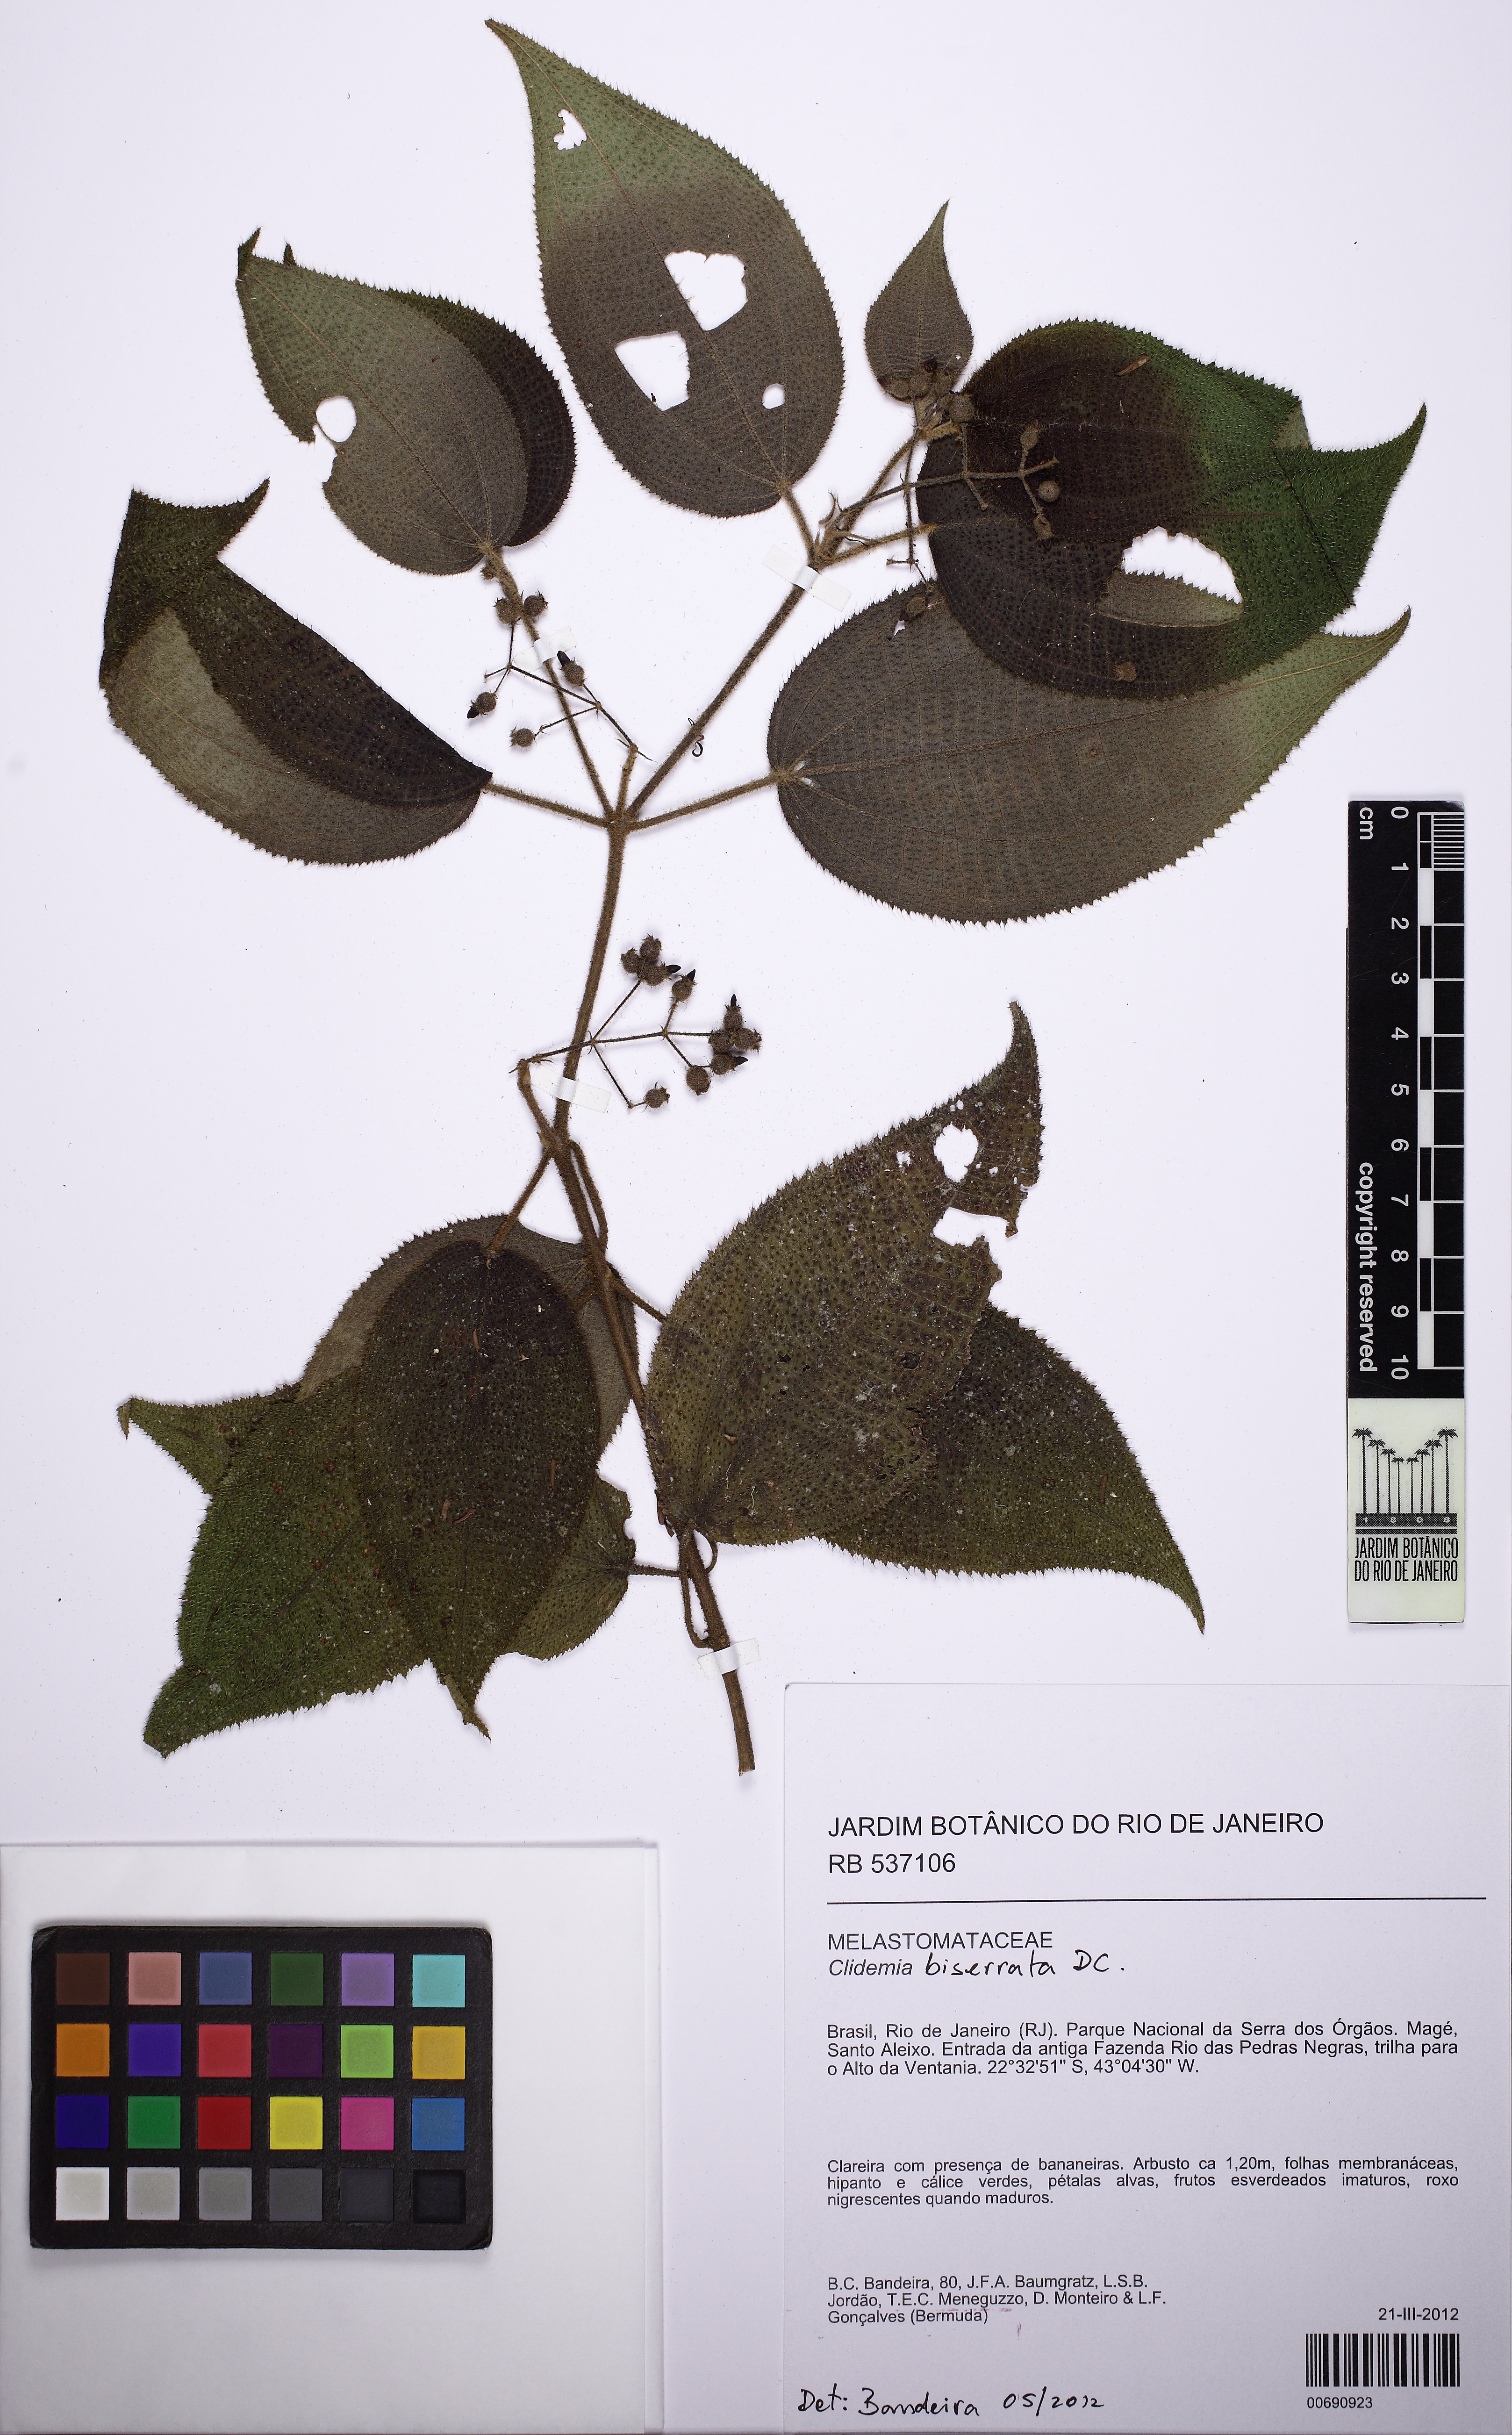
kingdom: Plantae
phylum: Tracheophyta
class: Magnoliopsida
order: Myrtales
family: Melastomataceae
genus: Miconia
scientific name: Miconia biserrata
